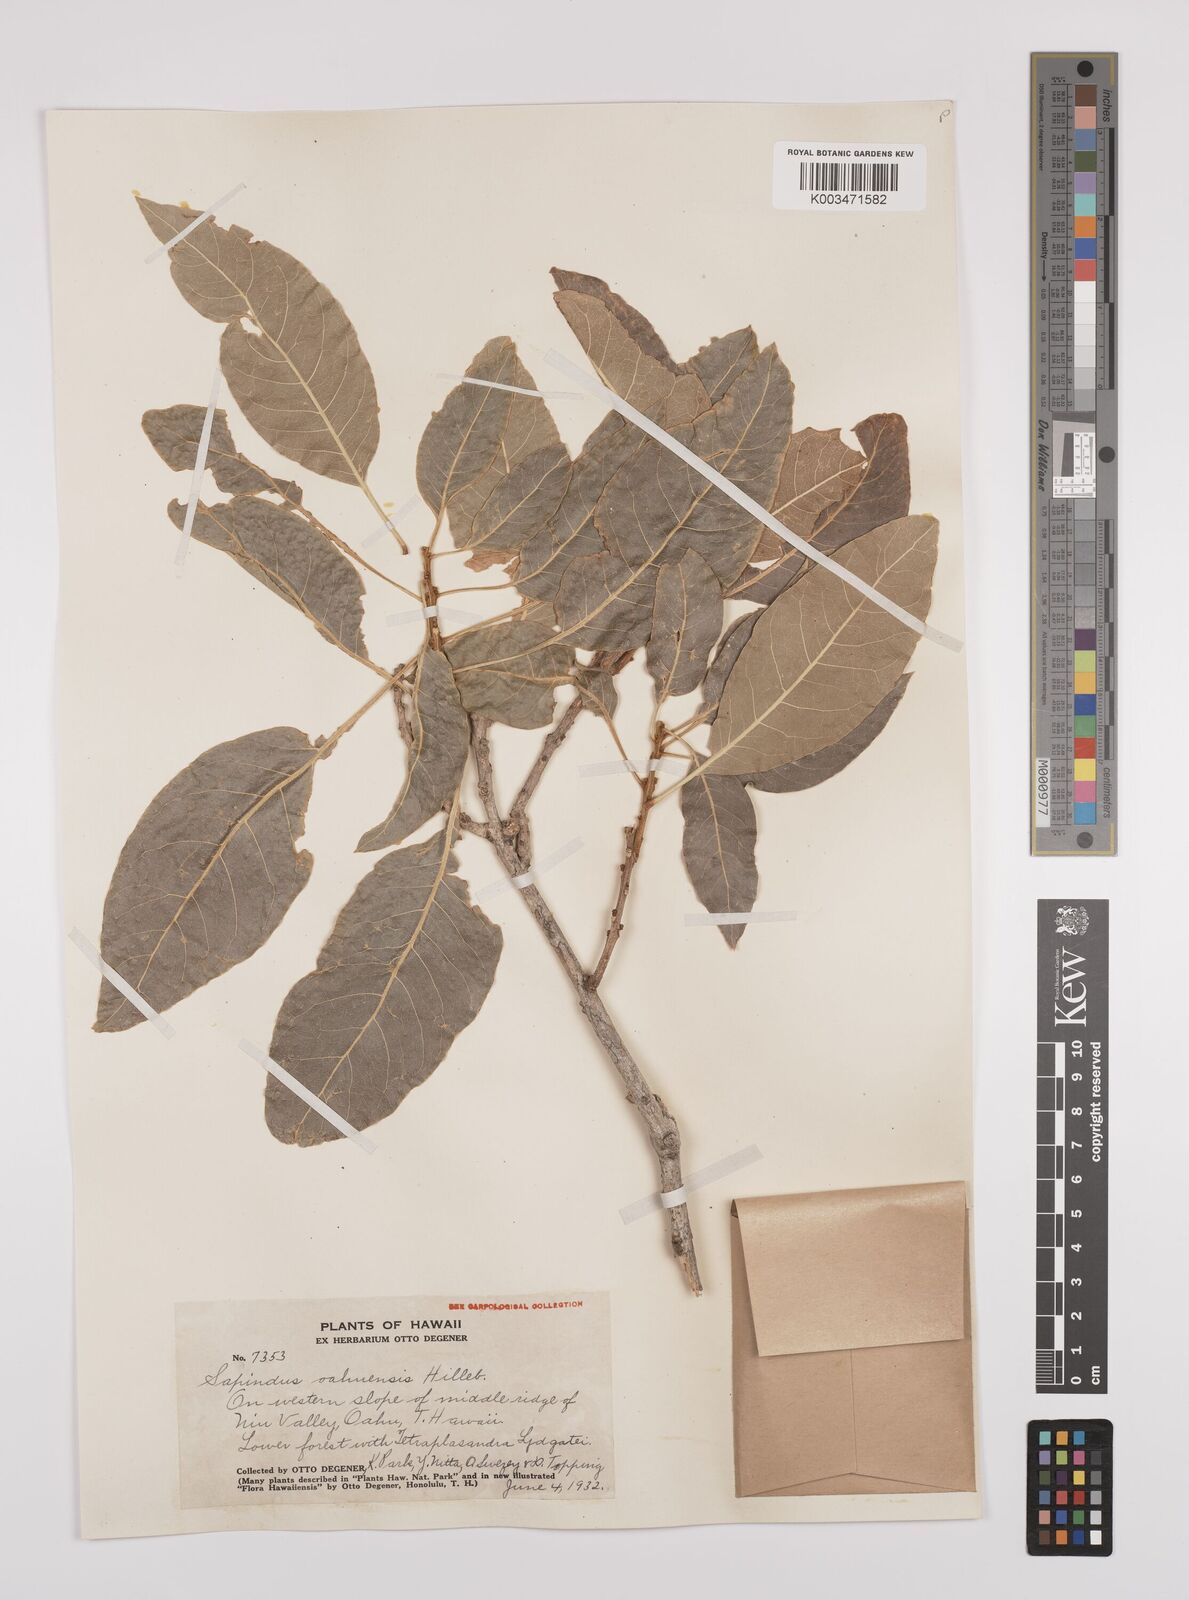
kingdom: Plantae
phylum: Tracheophyta
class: Magnoliopsida
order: Sapindales
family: Sapindaceae
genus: Sapindus
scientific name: Sapindus oahuensis
